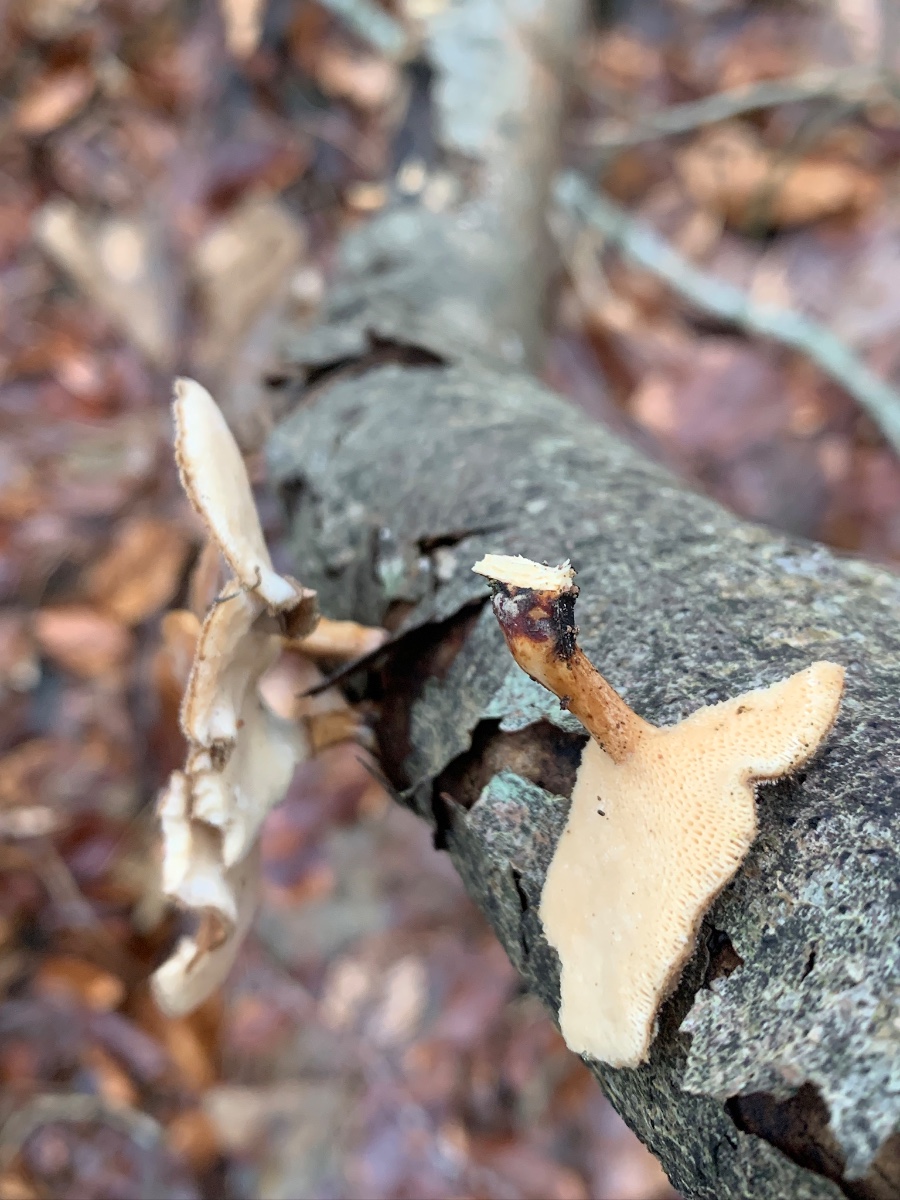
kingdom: Fungi
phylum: Basidiomycota
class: Agaricomycetes
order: Polyporales
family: Polyporaceae
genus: Lentinus
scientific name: Lentinus brumalis
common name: vinter-stilkporesvamp
